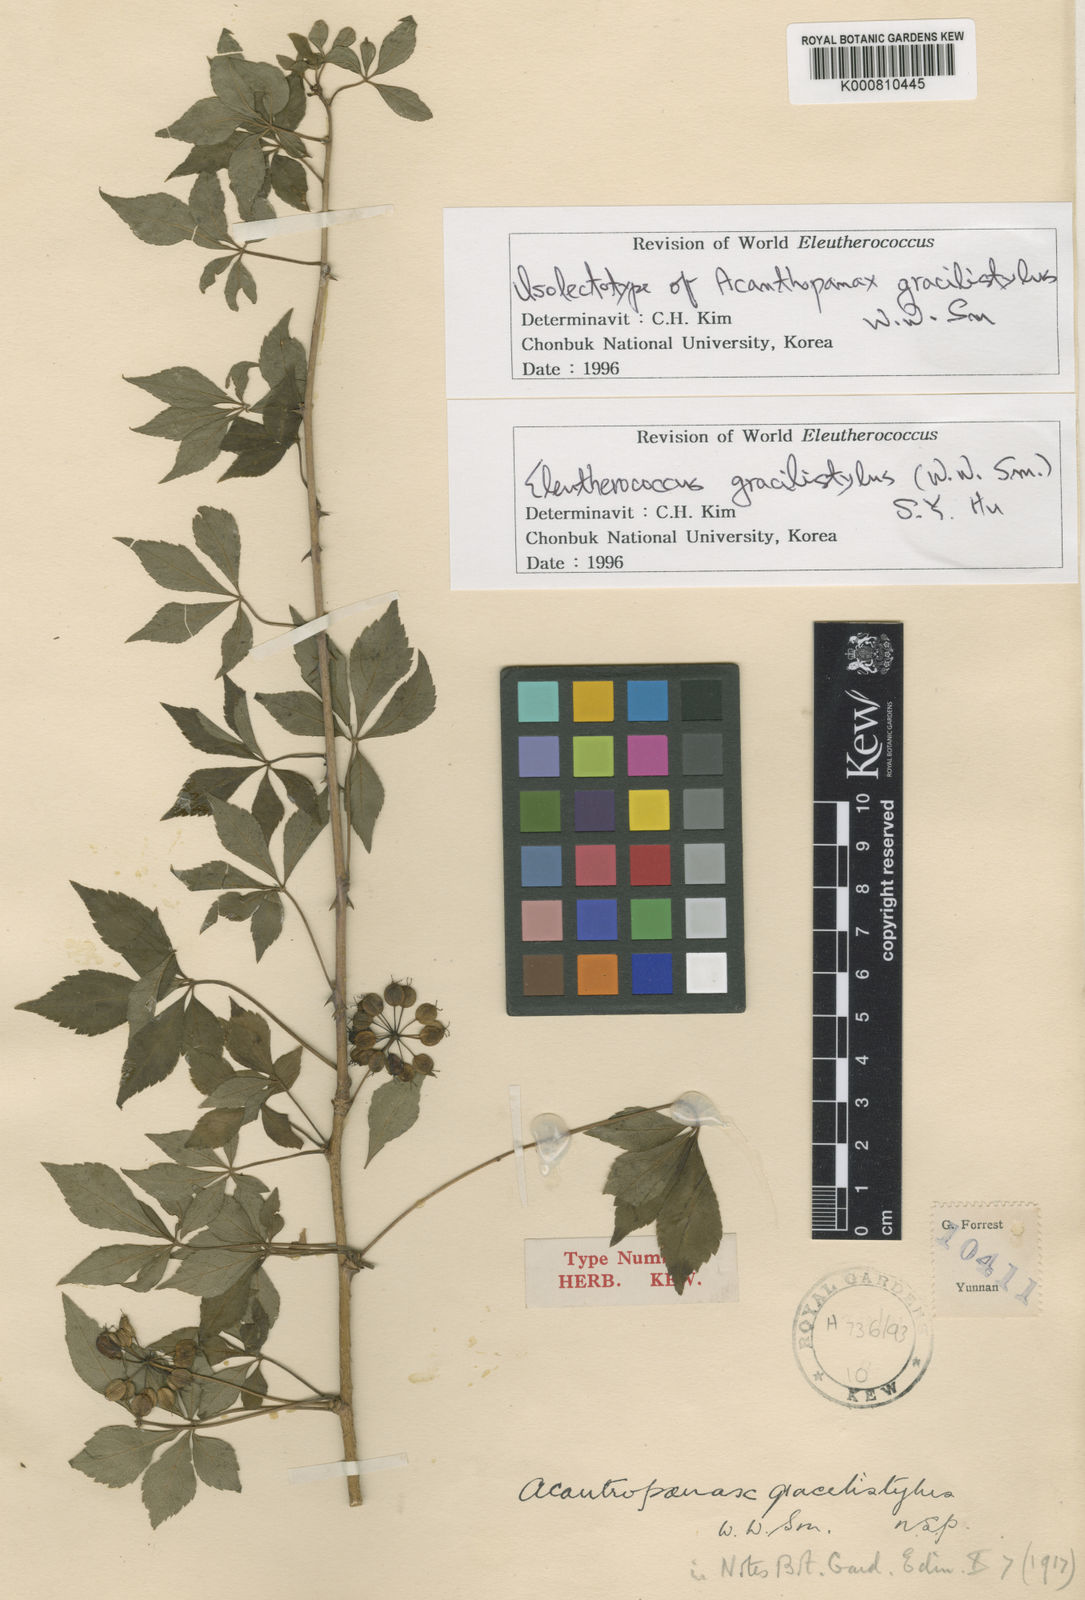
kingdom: Plantae
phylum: Tracheophyta
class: Magnoliopsida
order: Apiales
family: Araliaceae
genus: Eleutherococcus
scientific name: Eleutherococcus nodiflorus
